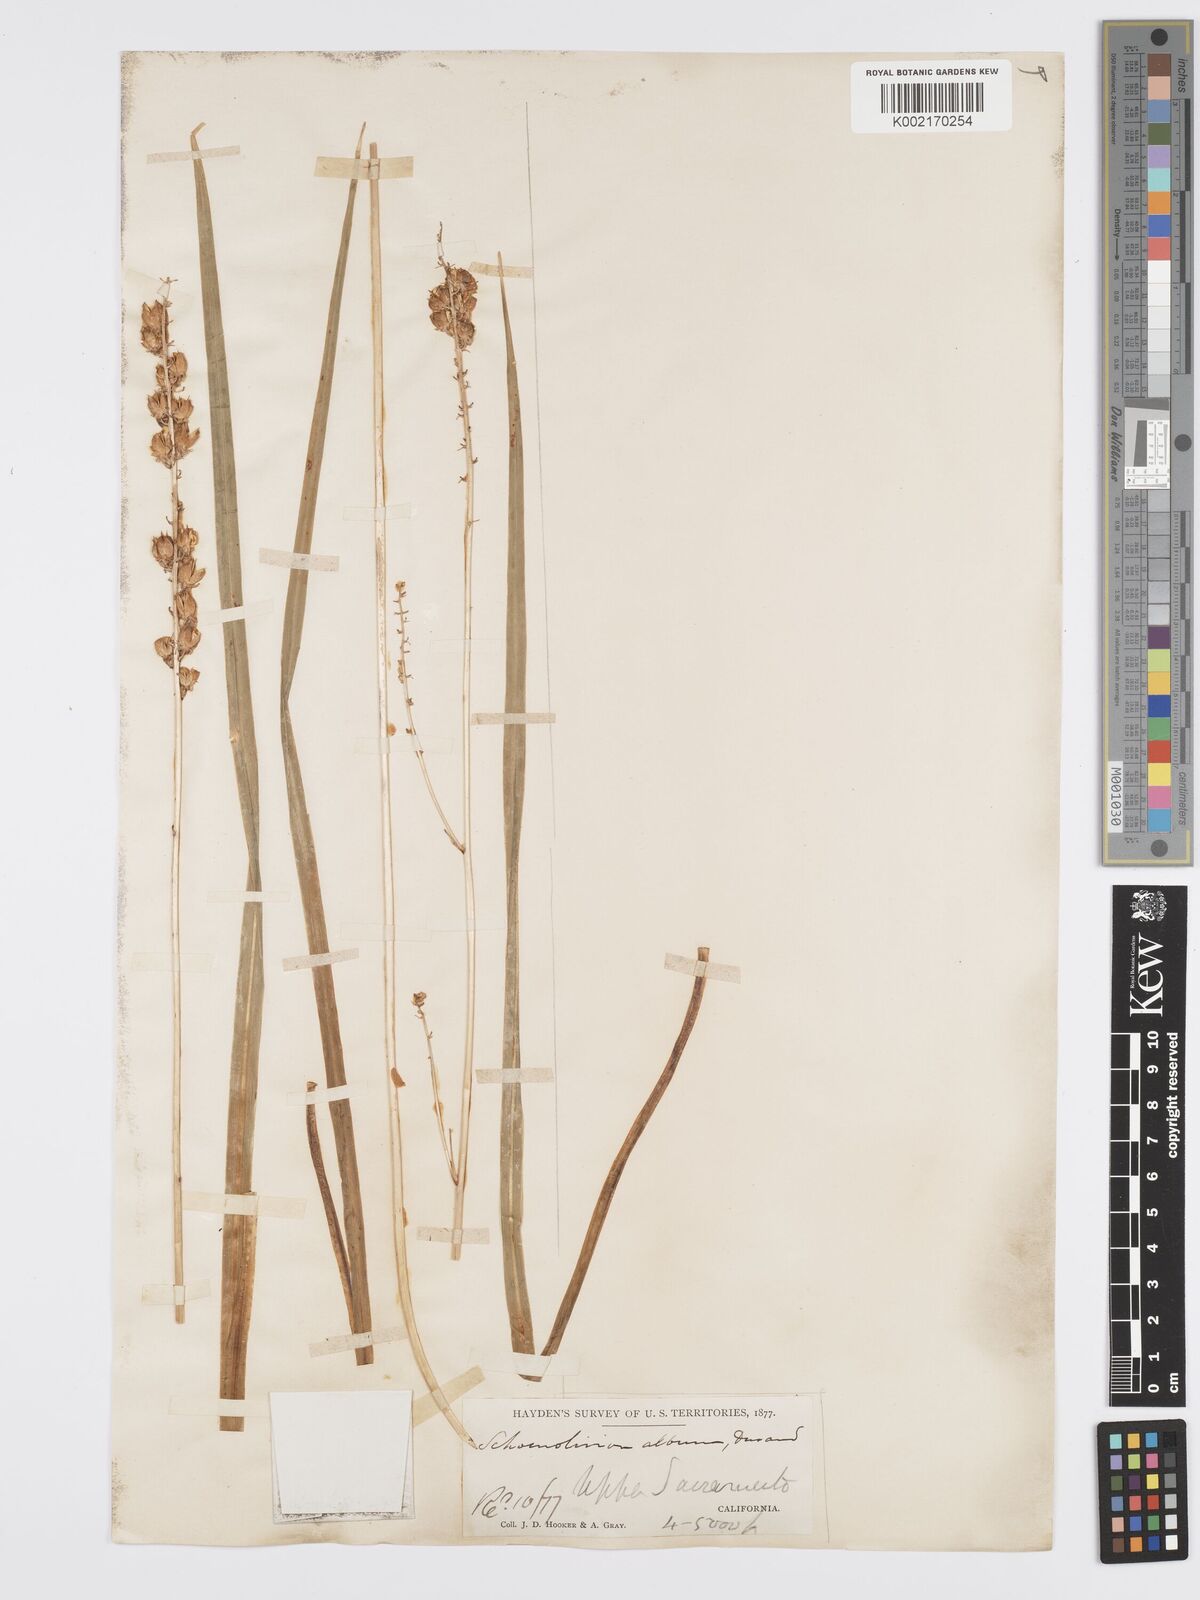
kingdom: Plantae
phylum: Tracheophyta
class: Liliopsida
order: Asparagales
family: Asparagaceae
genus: Hastingsia
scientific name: Hastingsia alba
